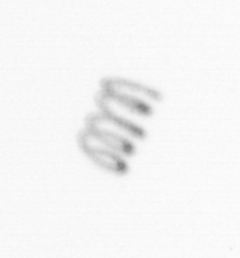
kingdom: Chromista
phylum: Ochrophyta
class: Bacillariophyceae
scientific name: Bacillariophyceae
